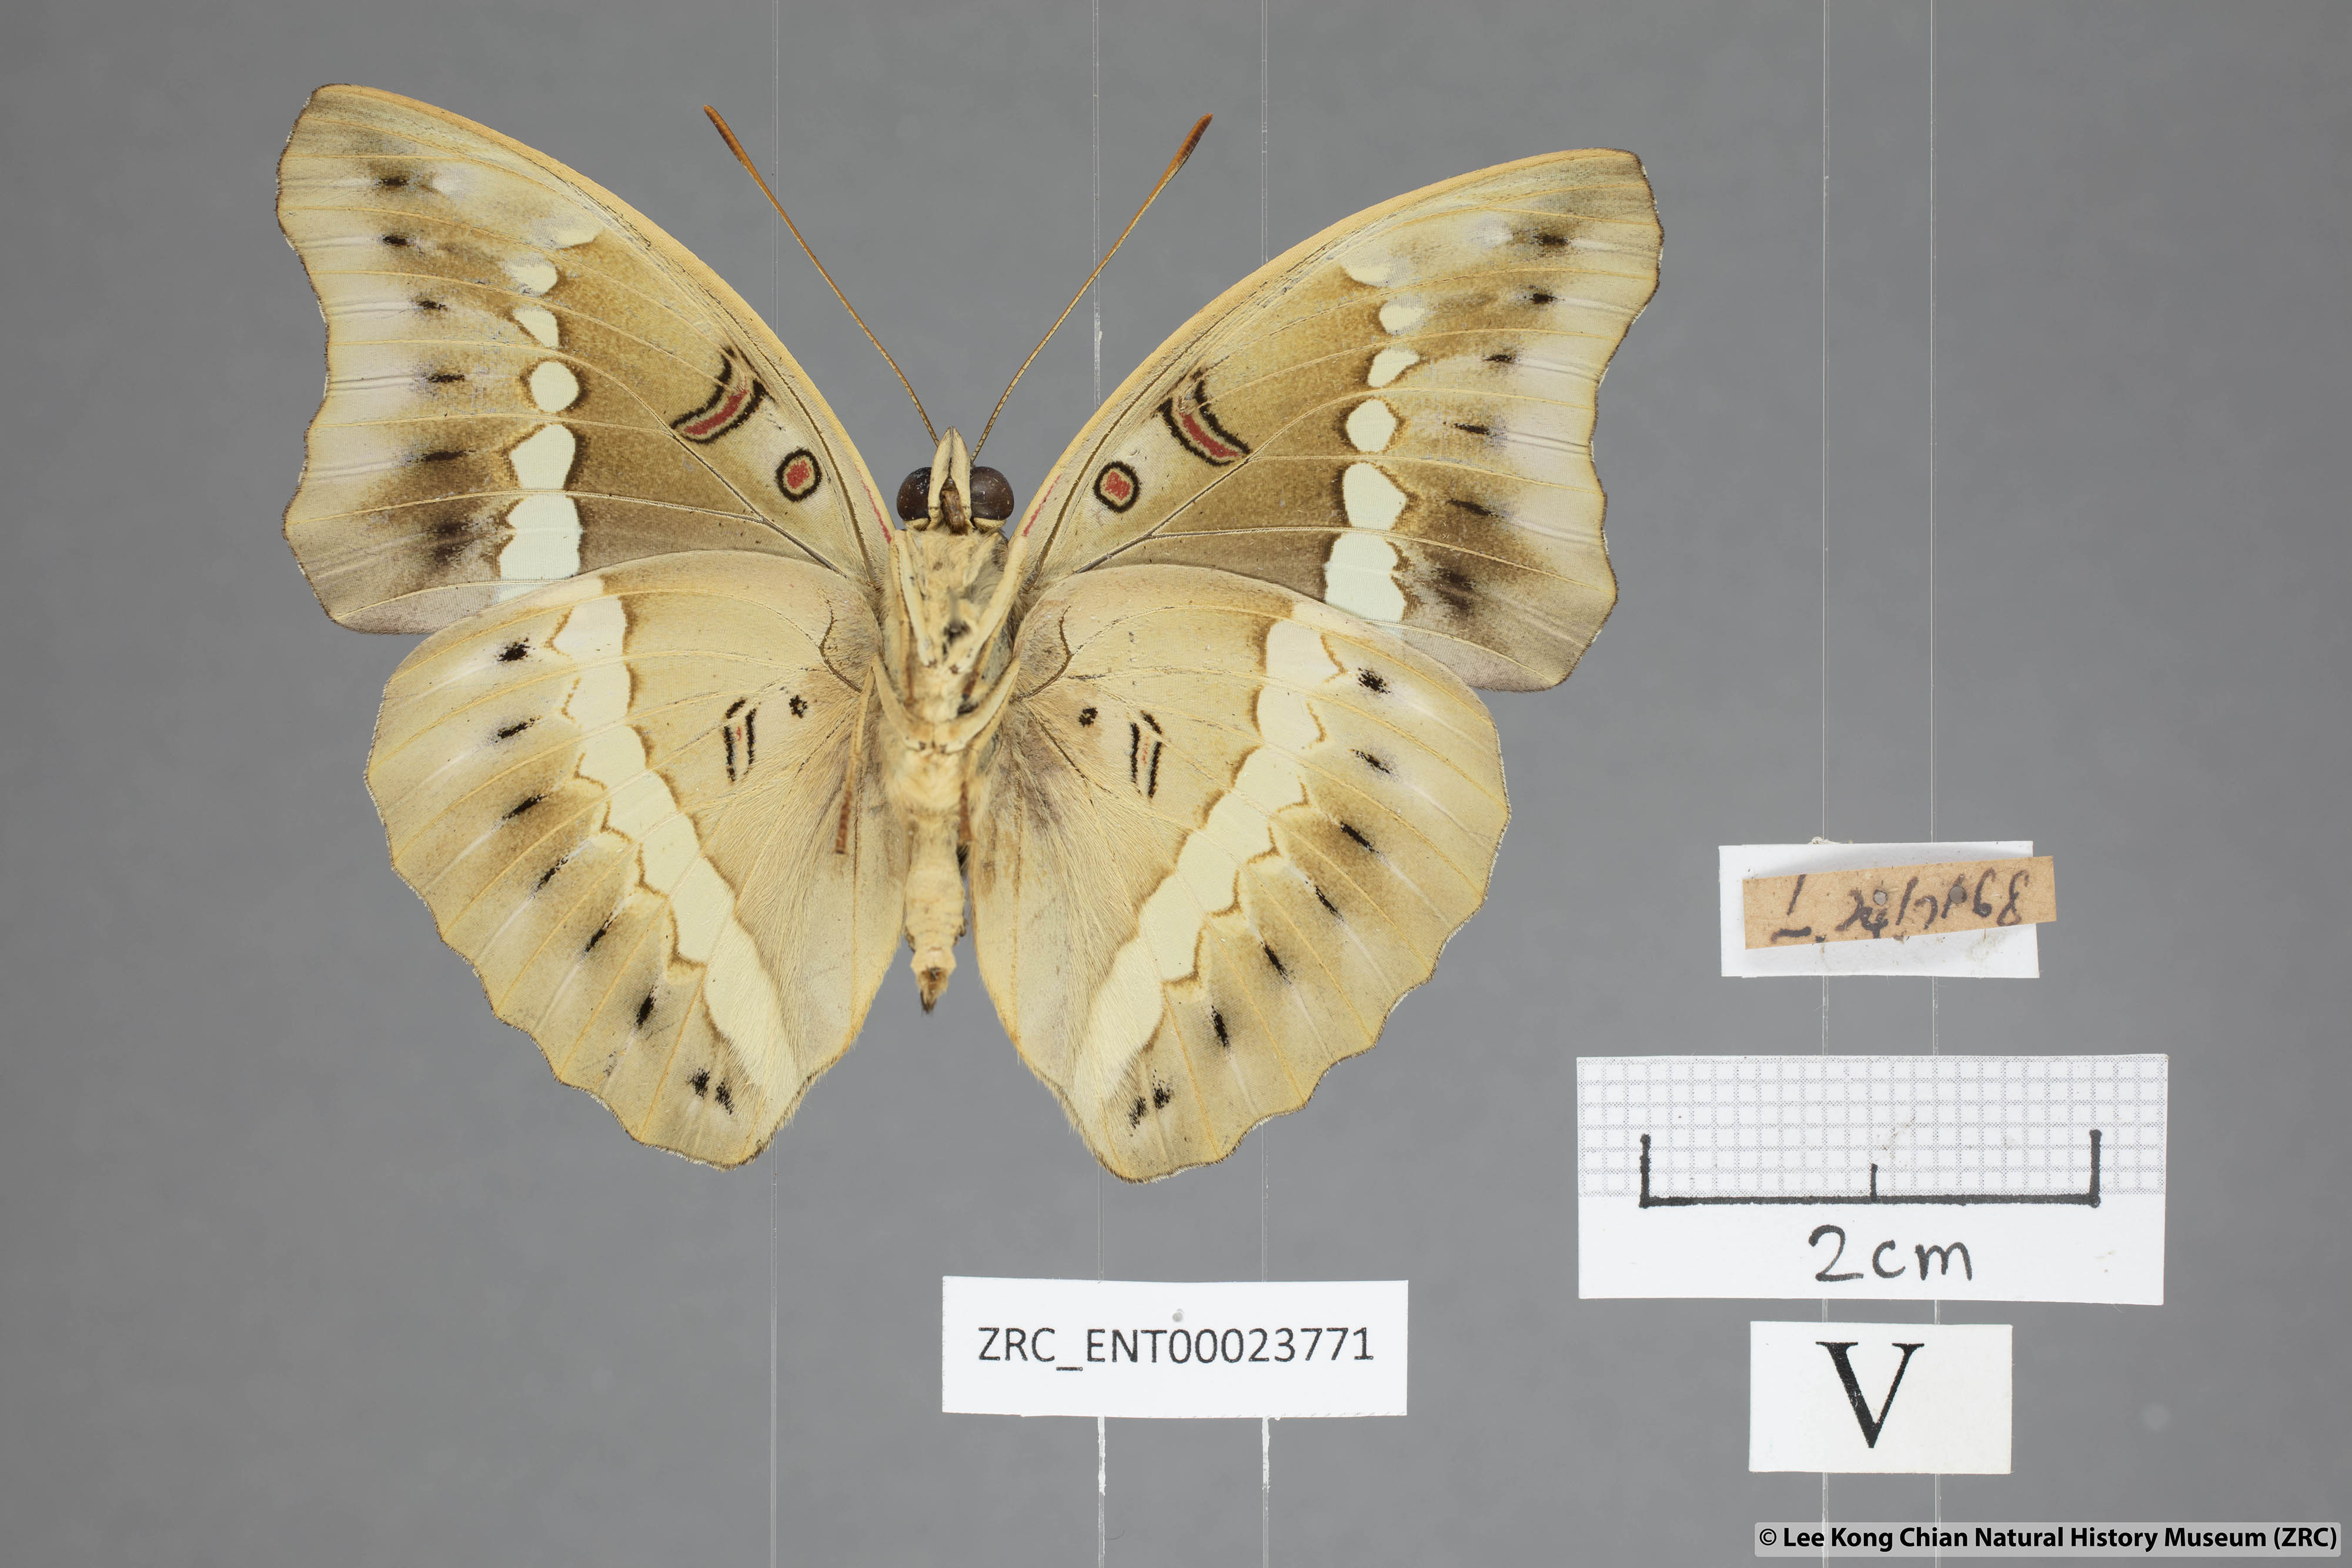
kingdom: Animalia
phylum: Arthropoda
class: Insecta
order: Lepidoptera
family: Nymphalidae
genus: Euthalia
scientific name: Euthalia Bassarona teuta
